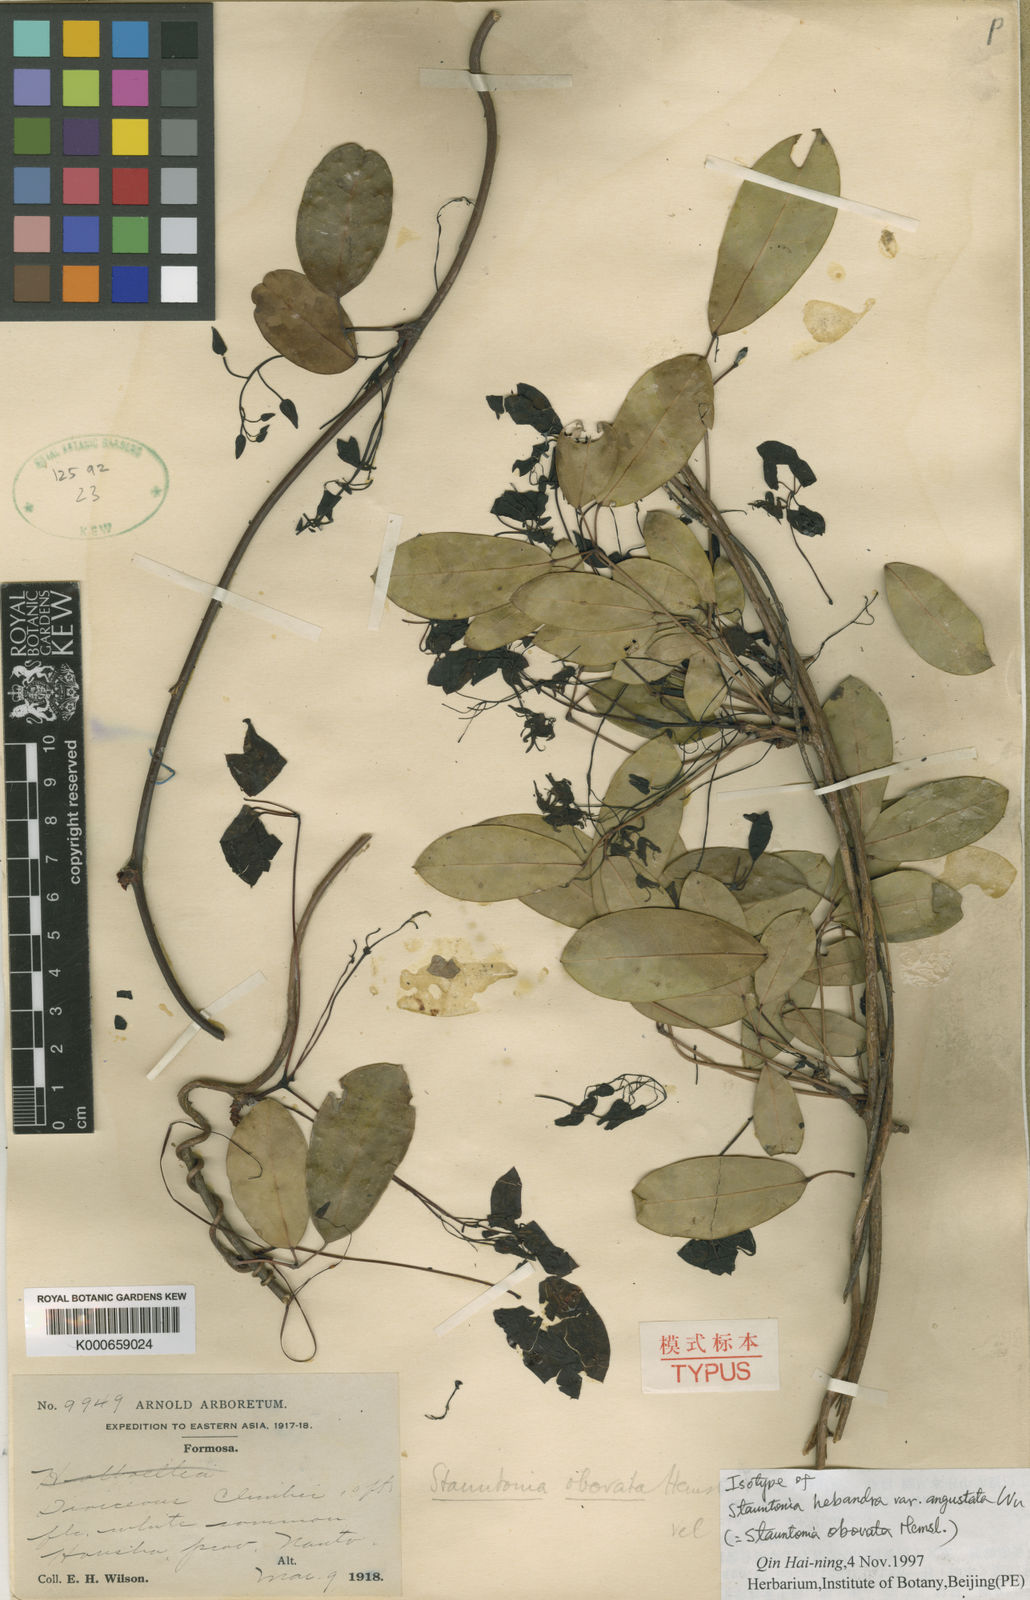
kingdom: Plantae
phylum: Tracheophyta
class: Magnoliopsida
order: Ranunculales
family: Lardizabalaceae
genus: Stauntonia
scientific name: Stauntonia obovata
